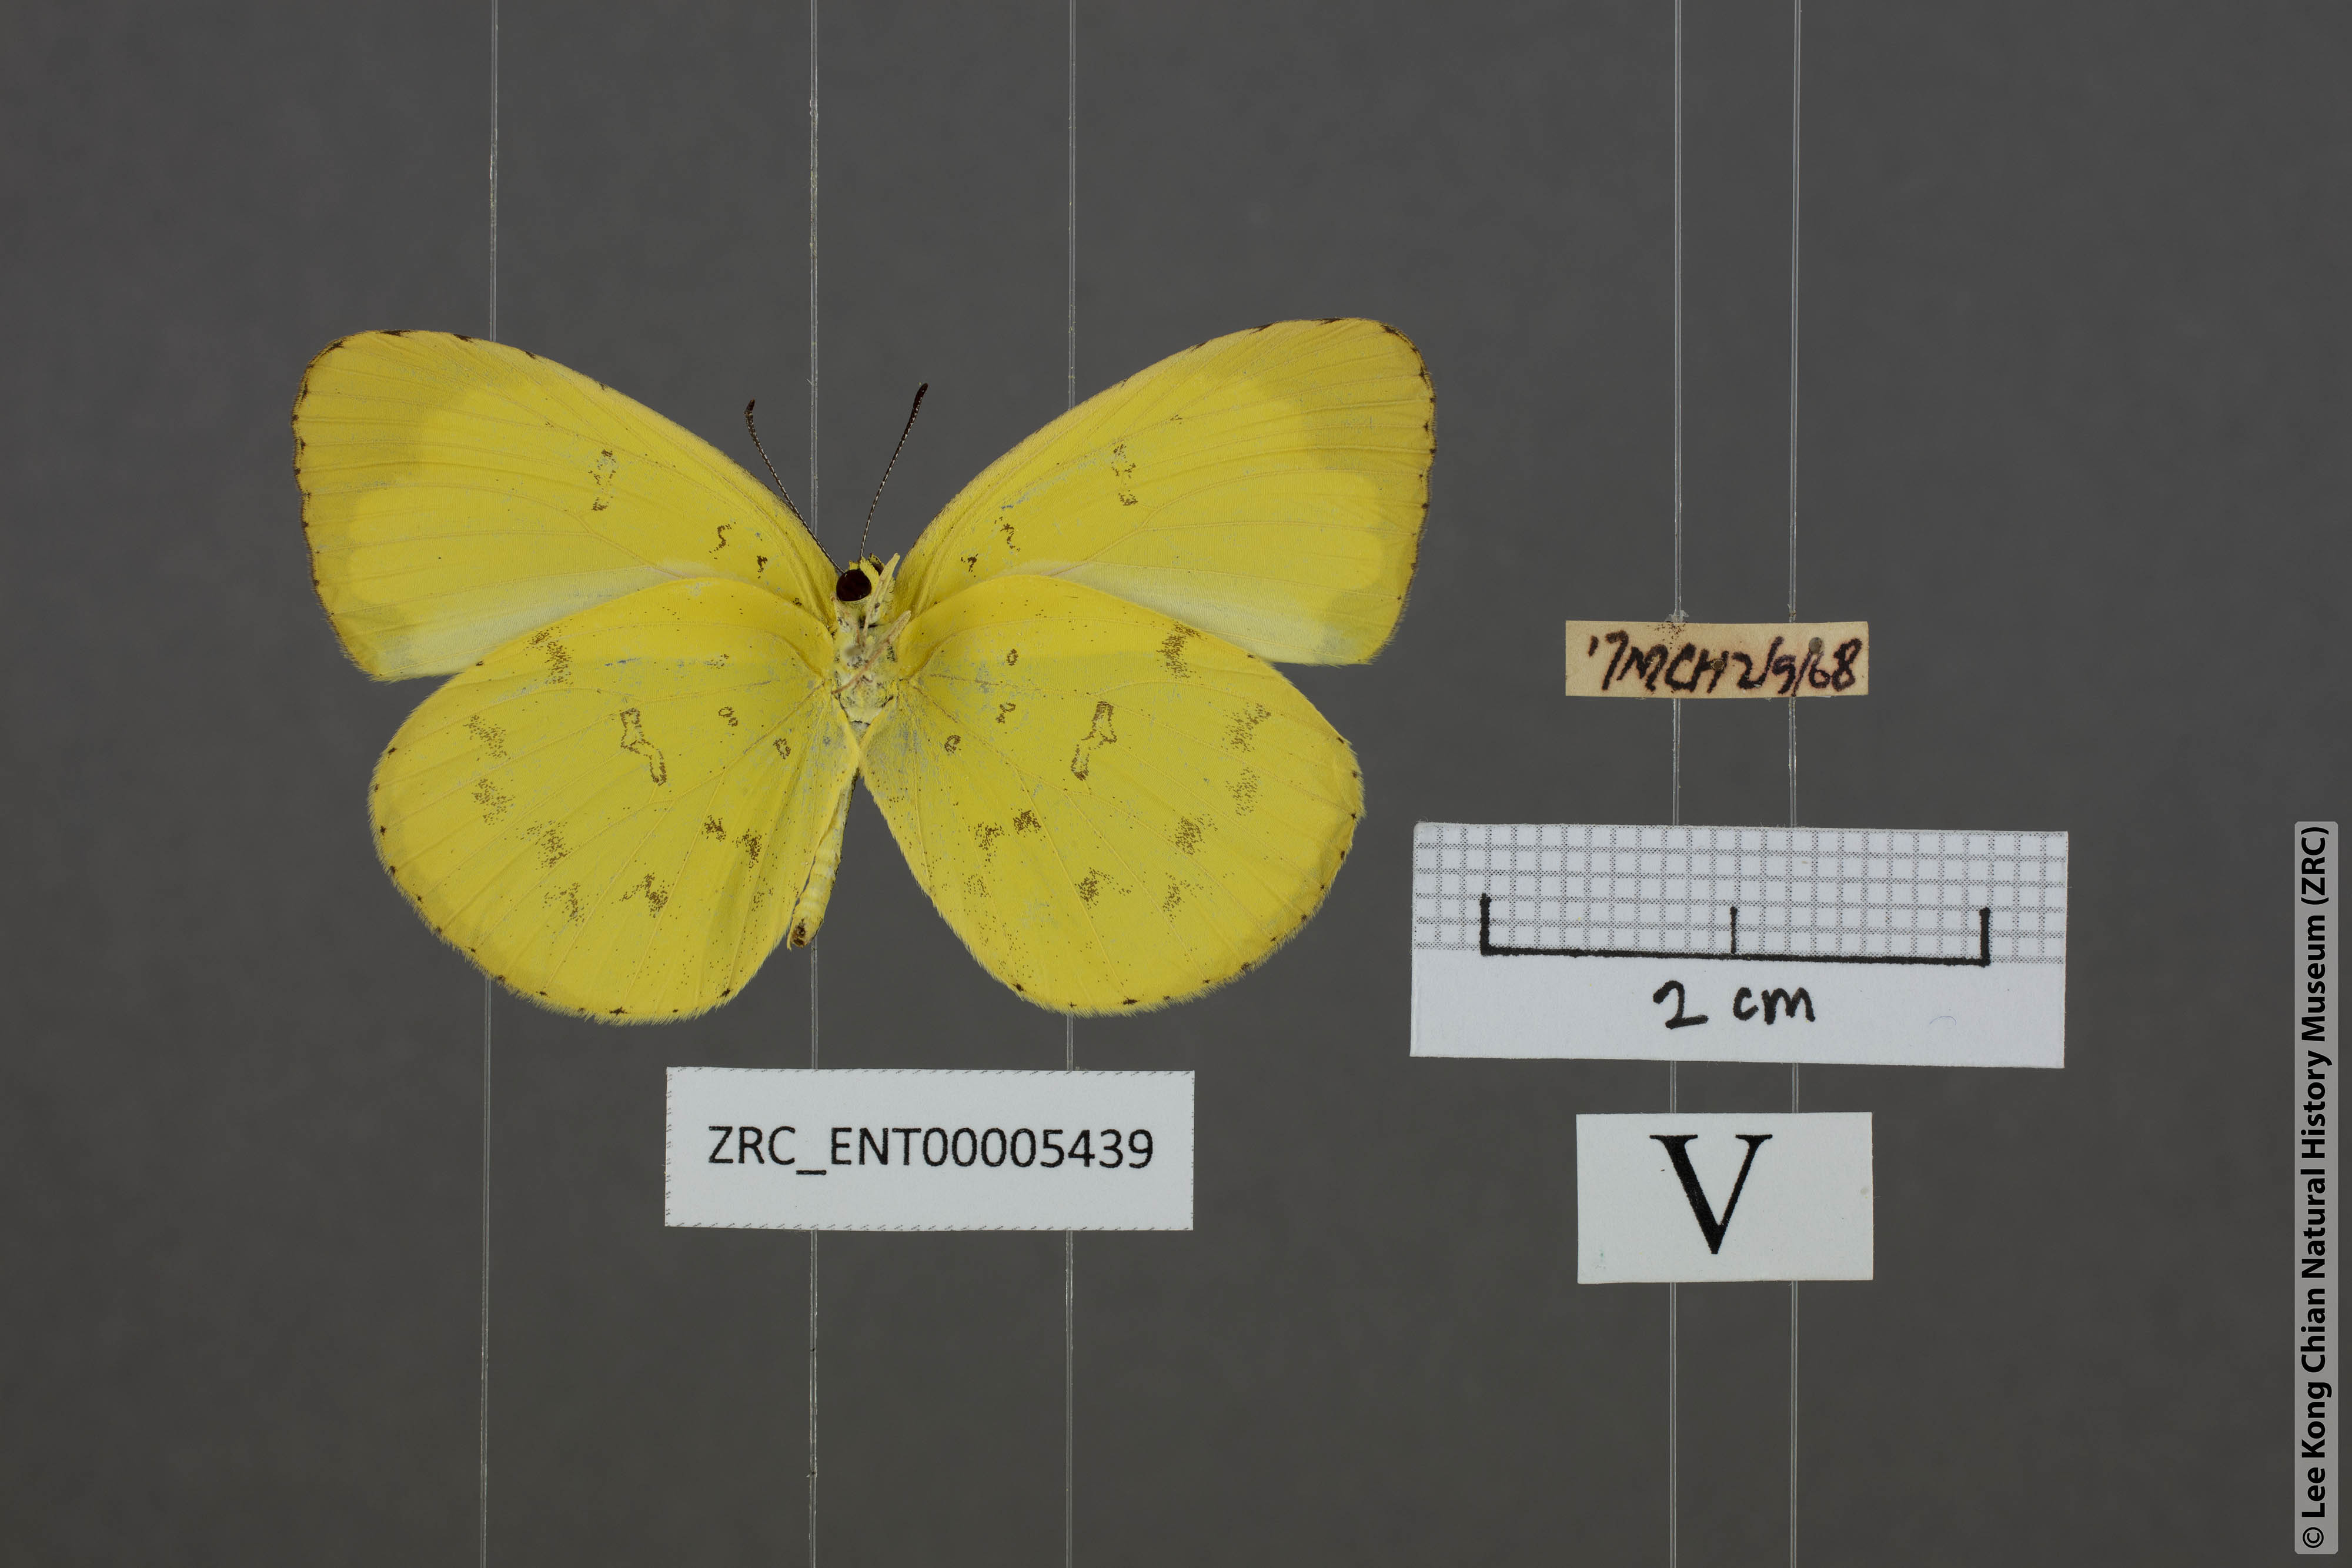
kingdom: Animalia
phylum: Arthropoda
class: Insecta
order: Lepidoptera
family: Pieridae
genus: Eurema
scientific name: Eurema hecabe
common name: Pale grass yellow
